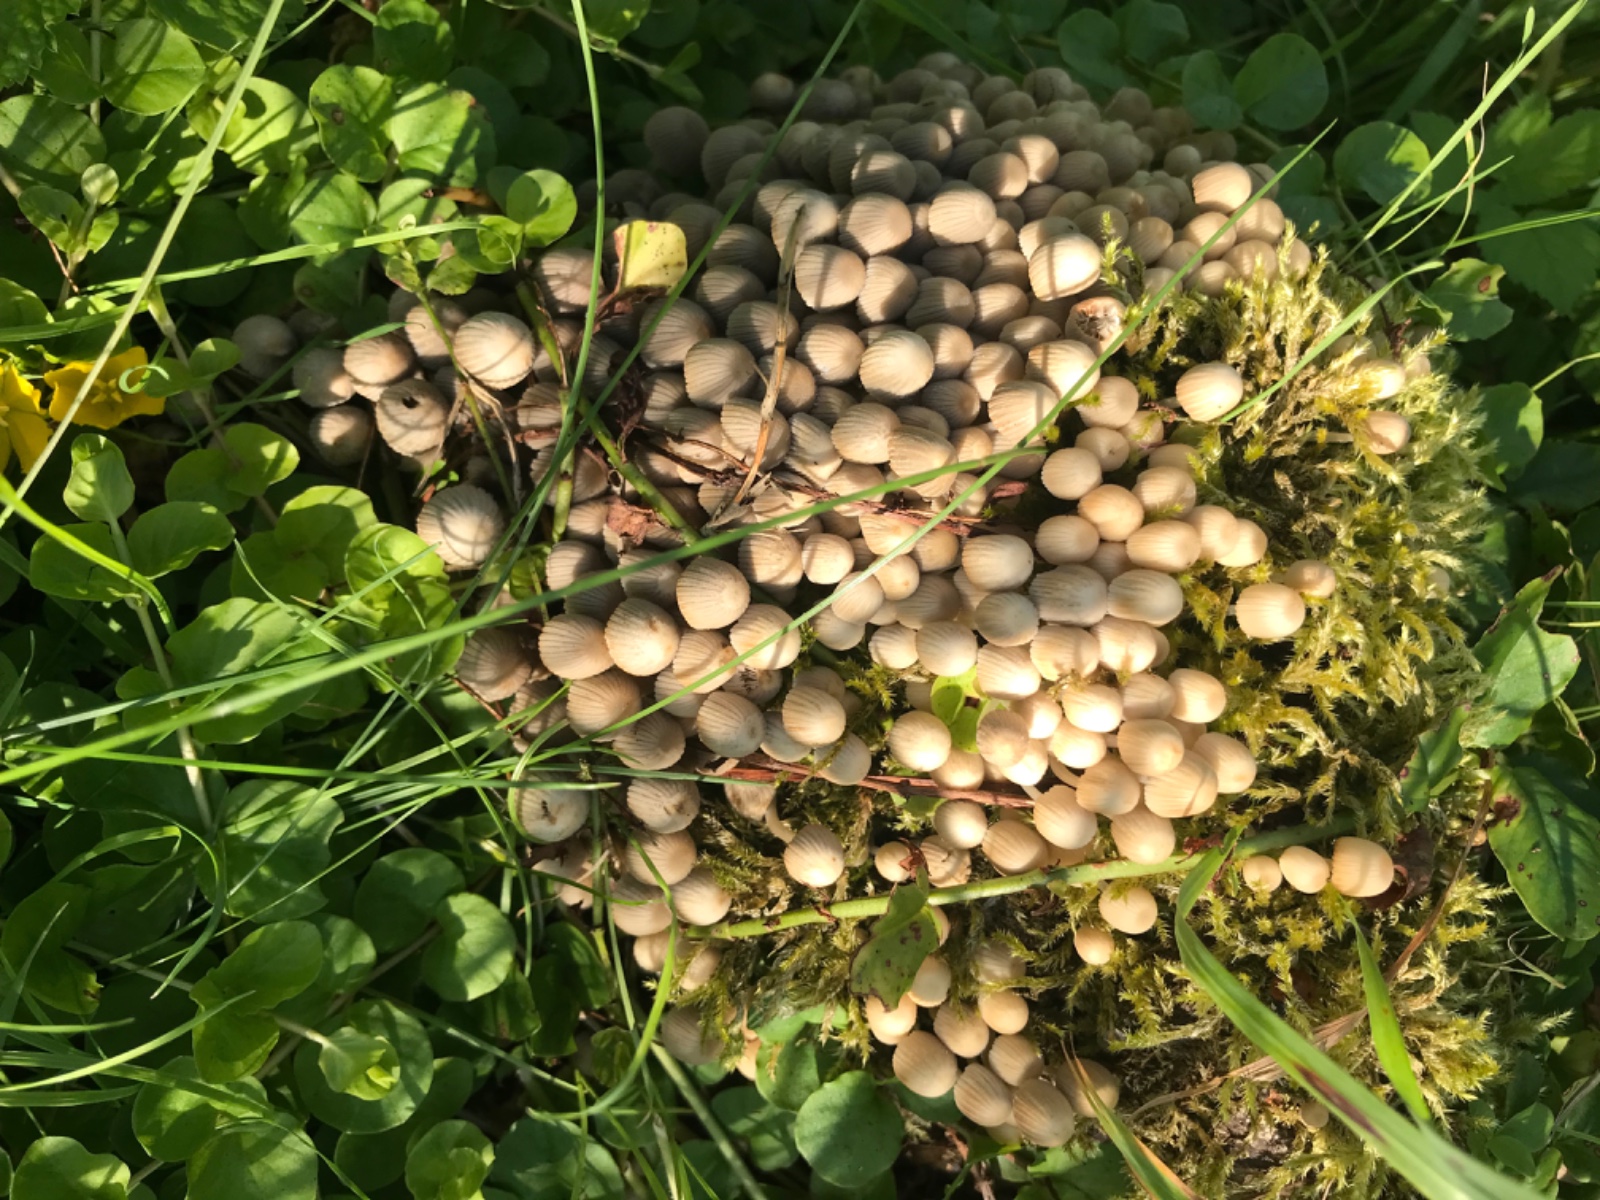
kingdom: Fungi
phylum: Basidiomycota
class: Agaricomycetes
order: Agaricales
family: Psathyrellaceae
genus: Coprinellus
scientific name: Coprinellus disseminatus
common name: bredsået blækhat
